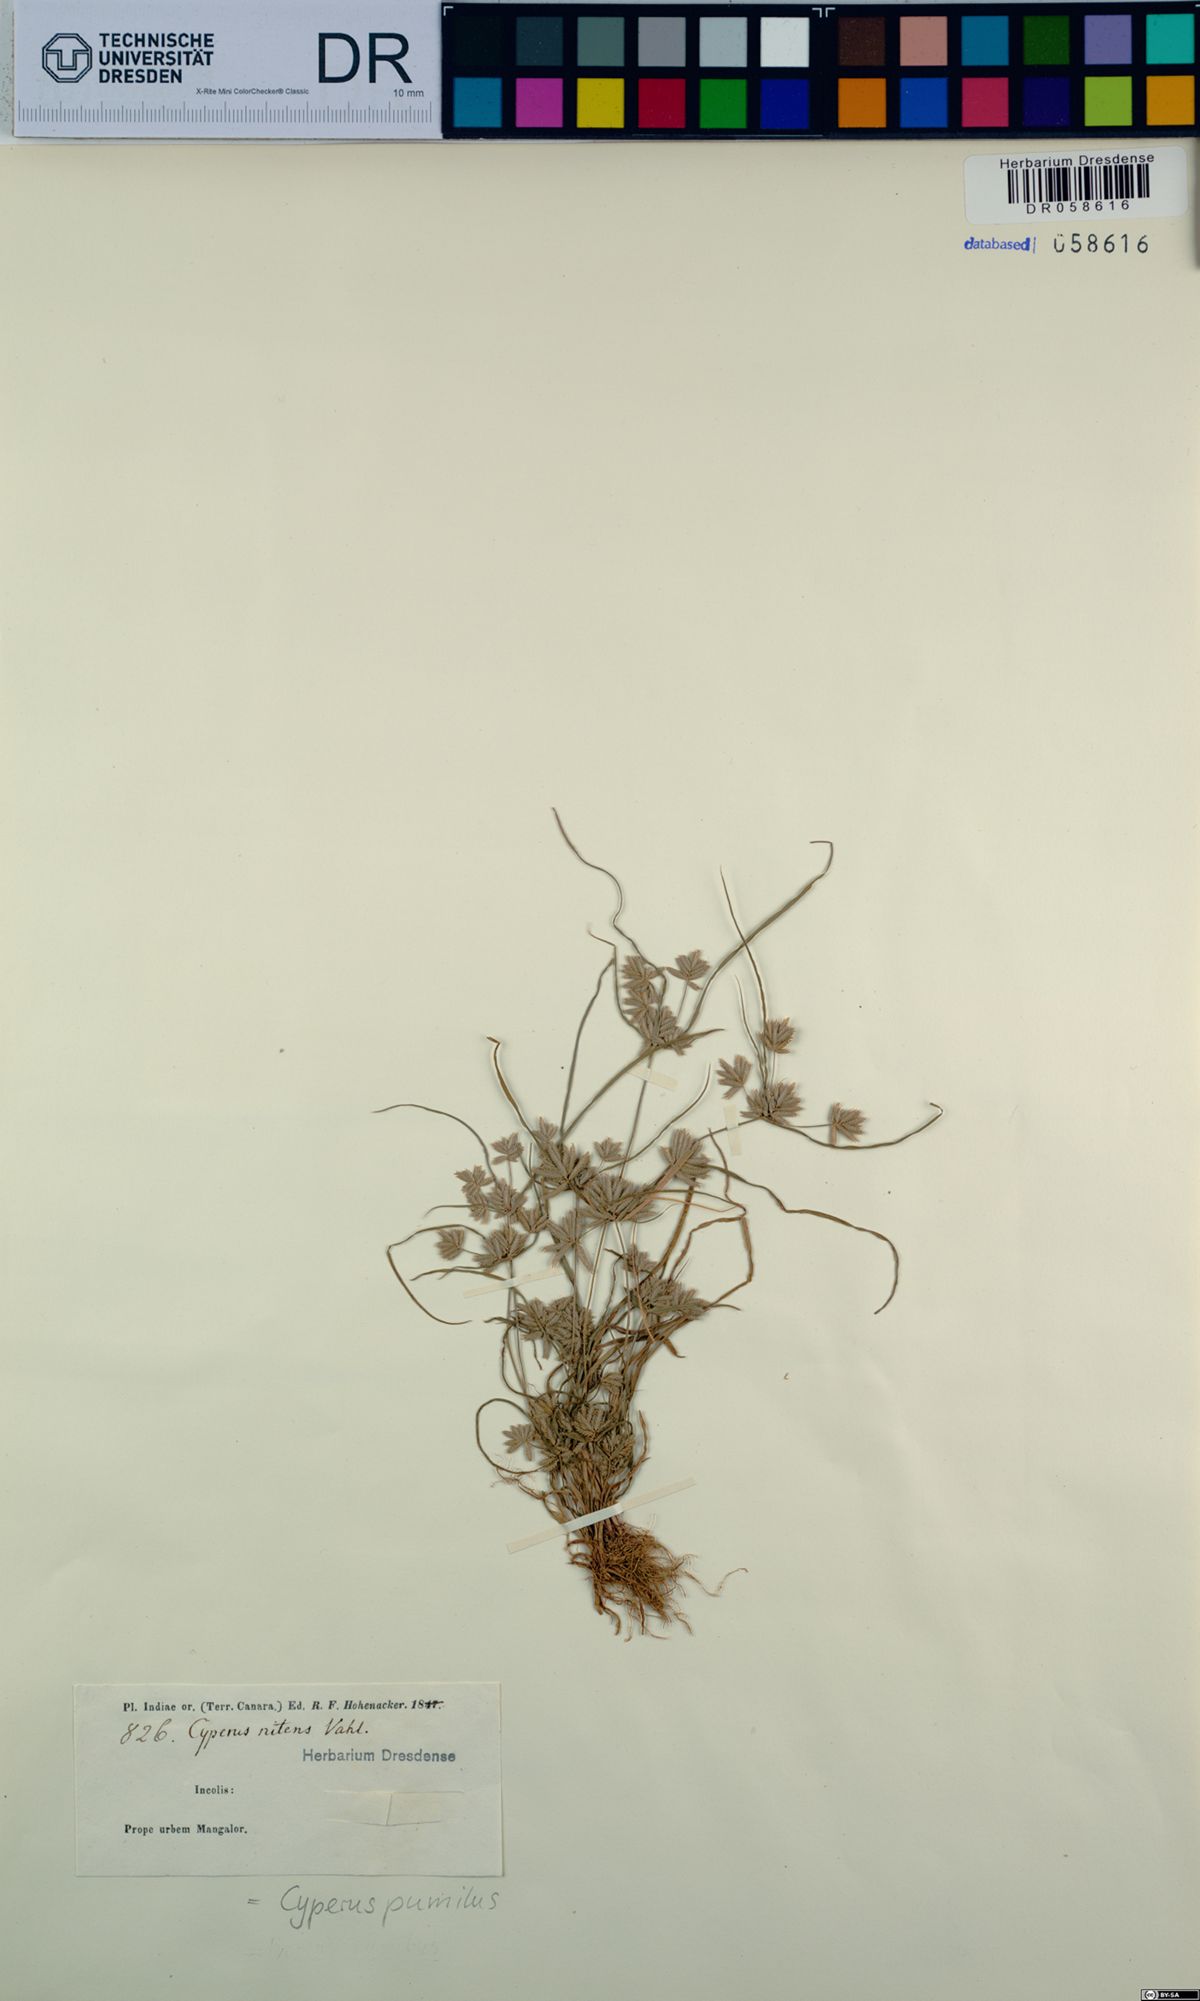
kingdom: Plantae
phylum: Tracheophyta
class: Liliopsida
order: Poales
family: Cyperaceae
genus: Cyperus
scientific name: Cyperus pumilus
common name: Low flatsedge
